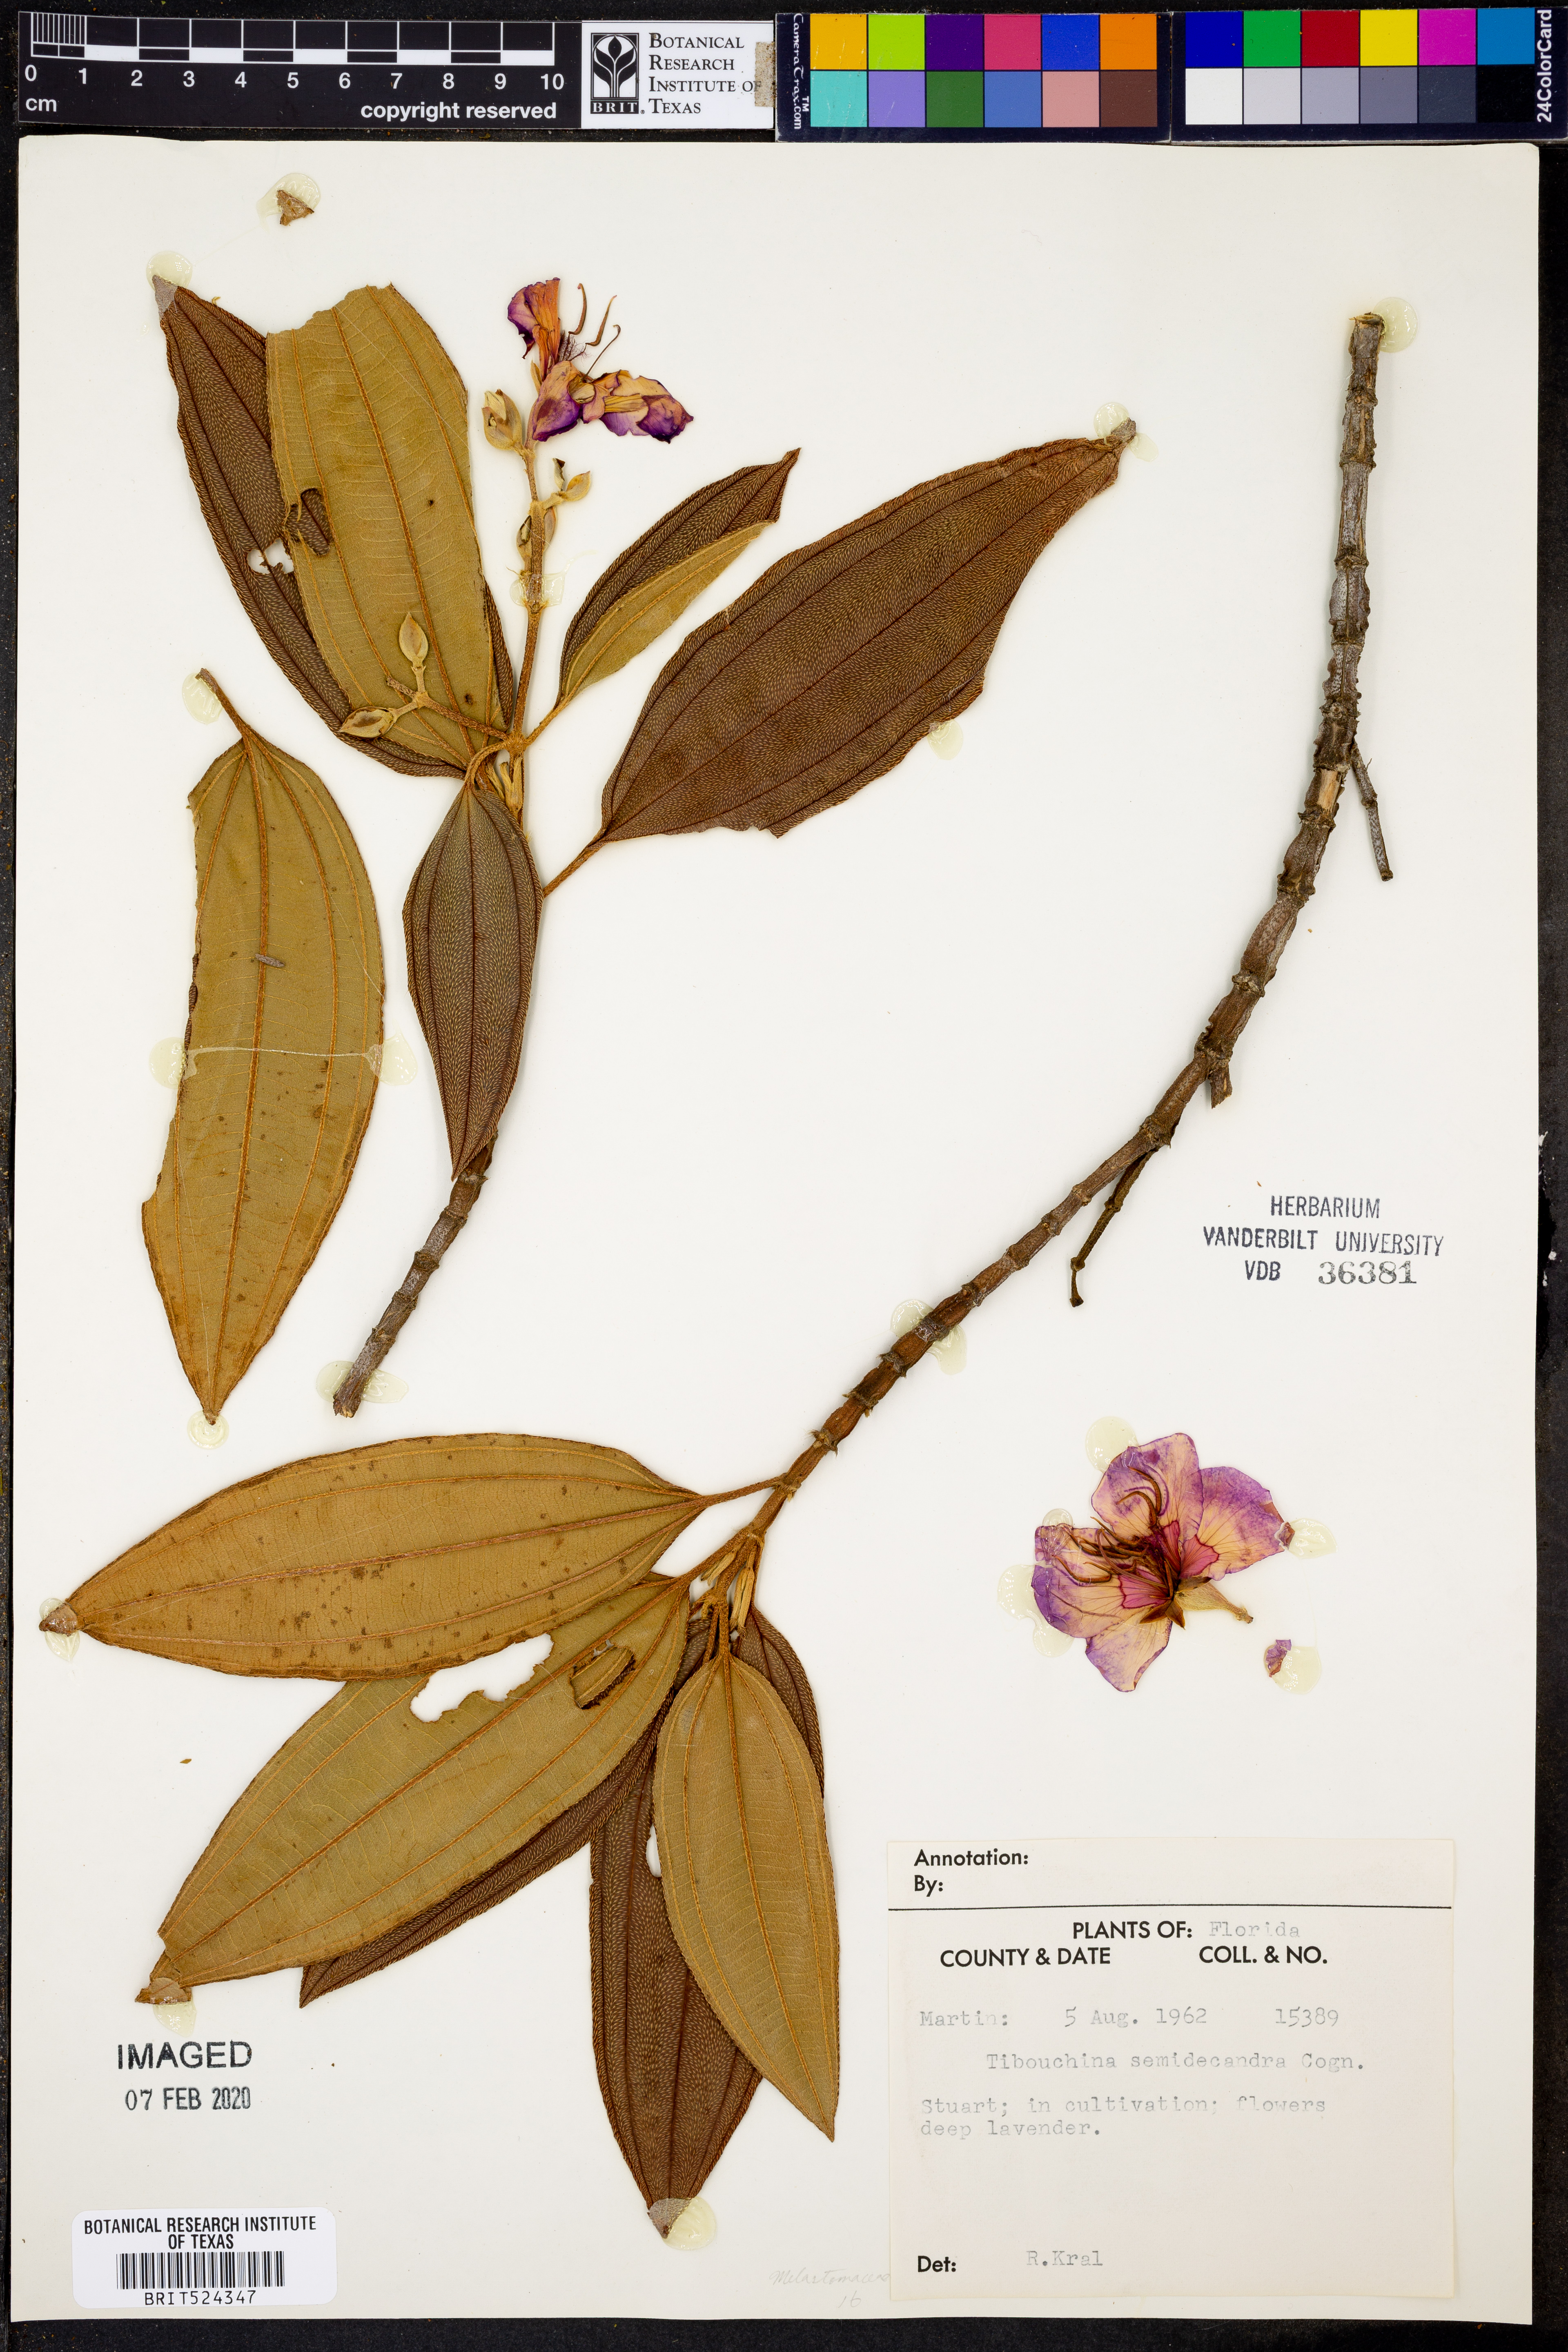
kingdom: Plantae
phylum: Tracheophyta
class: Magnoliopsida
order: Myrtales
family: Melastomataceae
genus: Pleroma
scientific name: Pleroma semidecandrum
